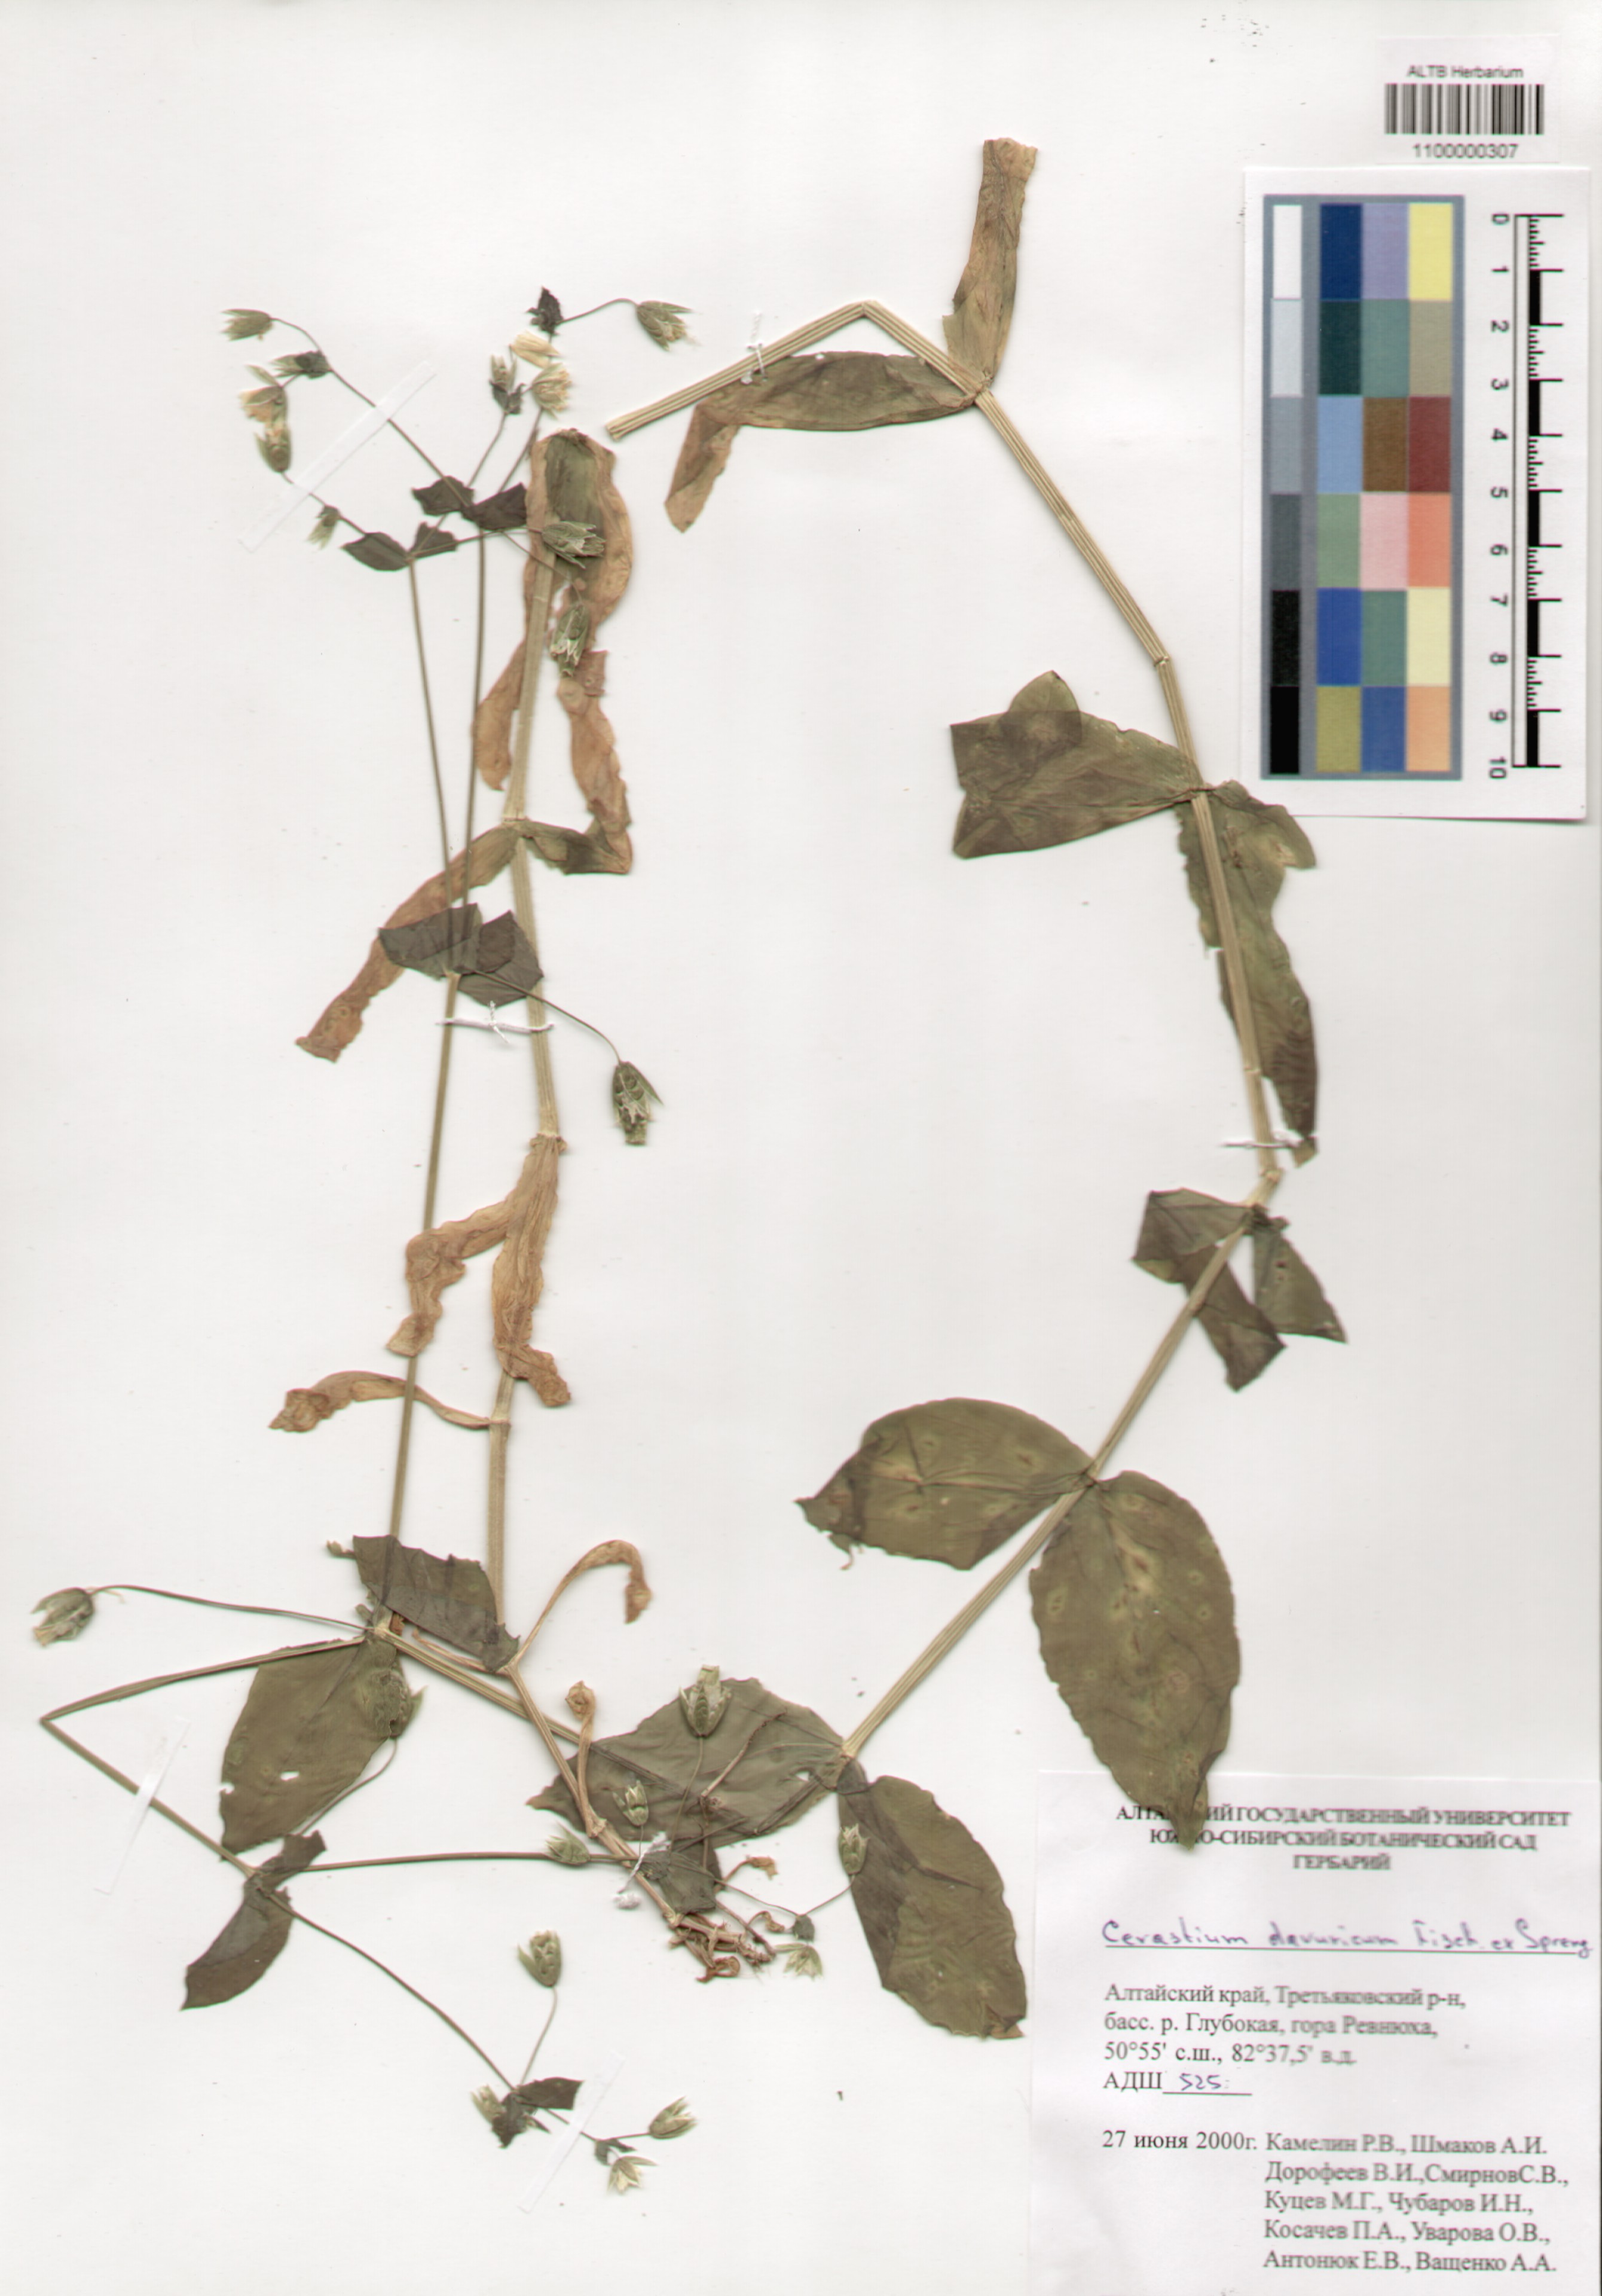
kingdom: Plantae
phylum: Tracheophyta
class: Magnoliopsida
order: Caryophyllales
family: Caryophyllaceae
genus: Dichodon
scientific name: Dichodon davuricum
